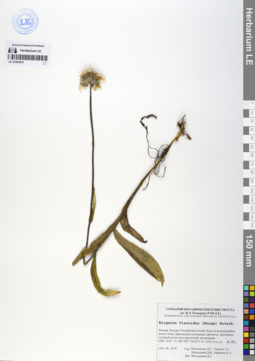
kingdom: Plantae
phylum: Tracheophyta
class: Magnoliopsida
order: Asterales
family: Asteraceae
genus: Tibetiodes
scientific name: Tibetiodes flaccida
